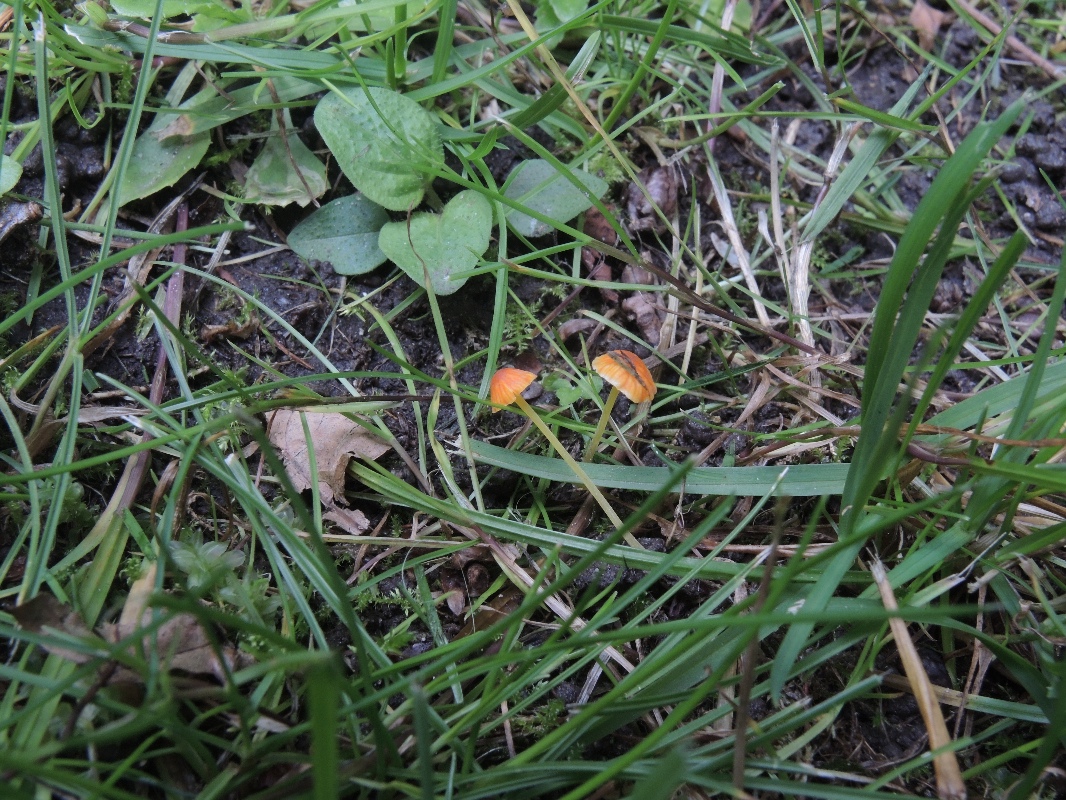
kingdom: Fungi
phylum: Basidiomycota
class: Agaricomycetes
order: Agaricales
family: Mycenaceae
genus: Mycena
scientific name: Mycena acicula
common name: orange huesvamp
